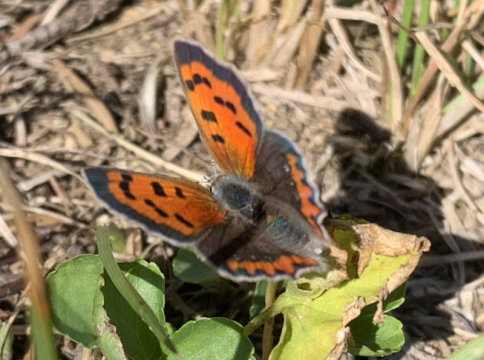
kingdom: Animalia
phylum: Arthropoda
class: Insecta
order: Lepidoptera
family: Lycaenidae
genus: Lycaena
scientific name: Lycaena phlaeas
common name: American Copper
